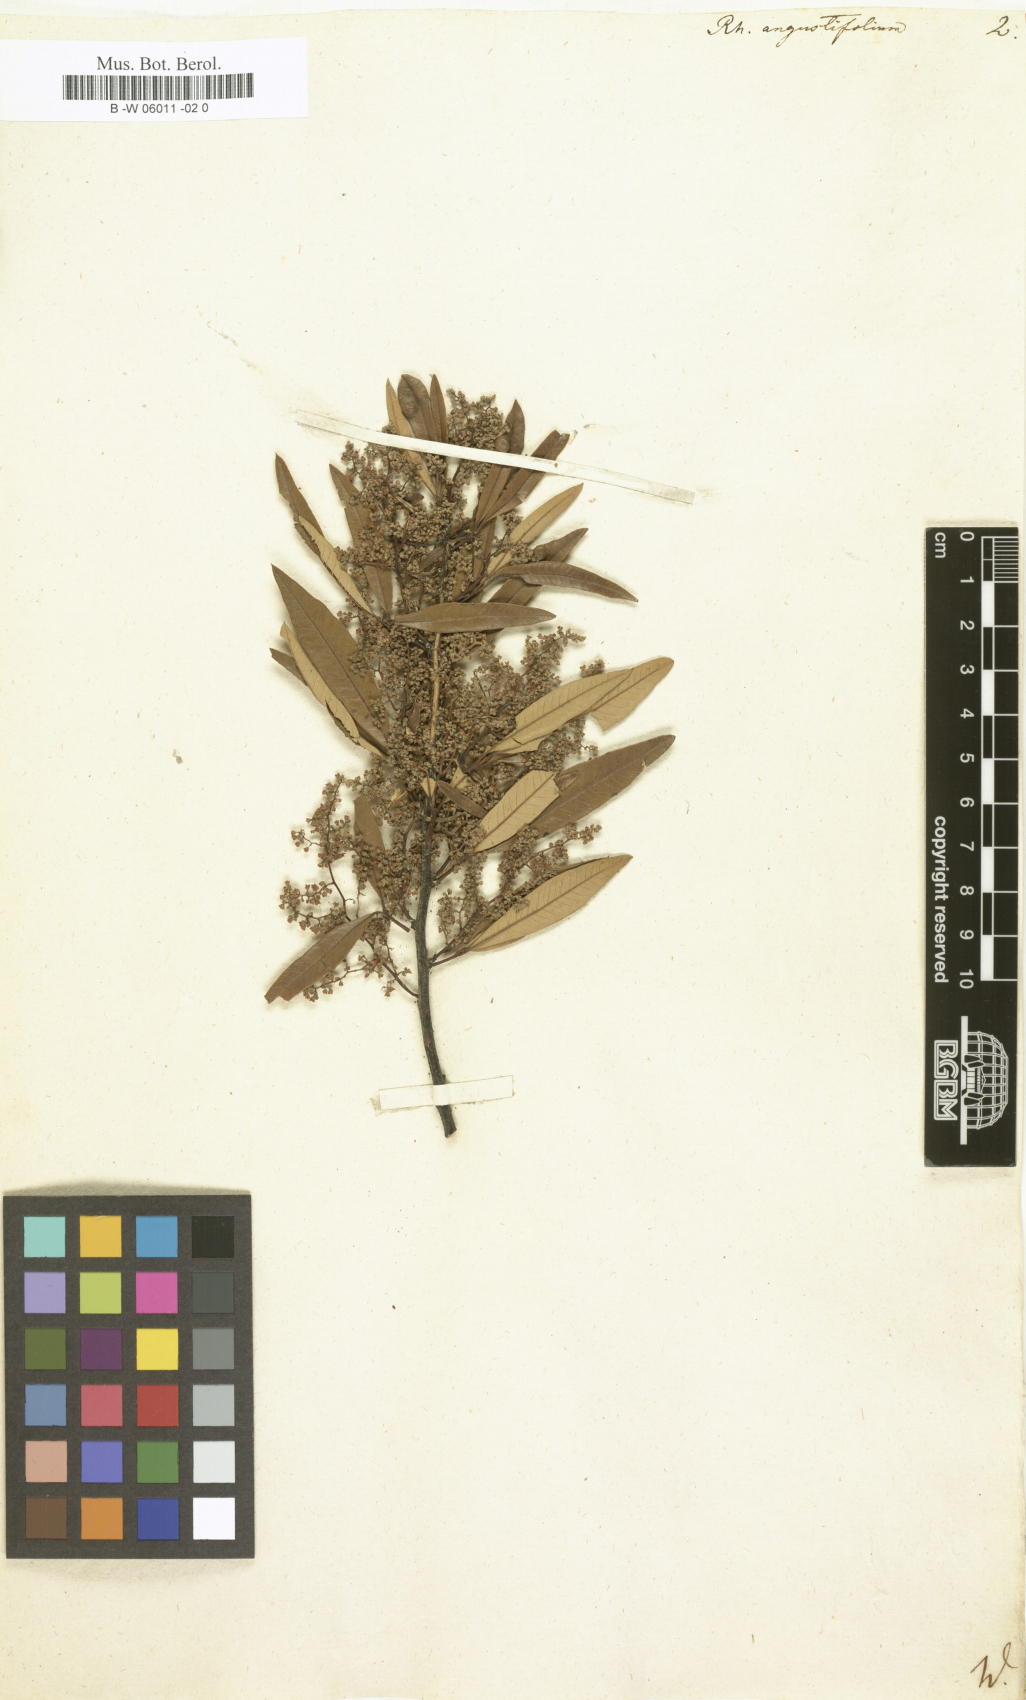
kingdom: Plantae
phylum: Tracheophyta
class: Magnoliopsida
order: Sapindales
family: Anacardiaceae
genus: Searsia
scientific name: Searsia
